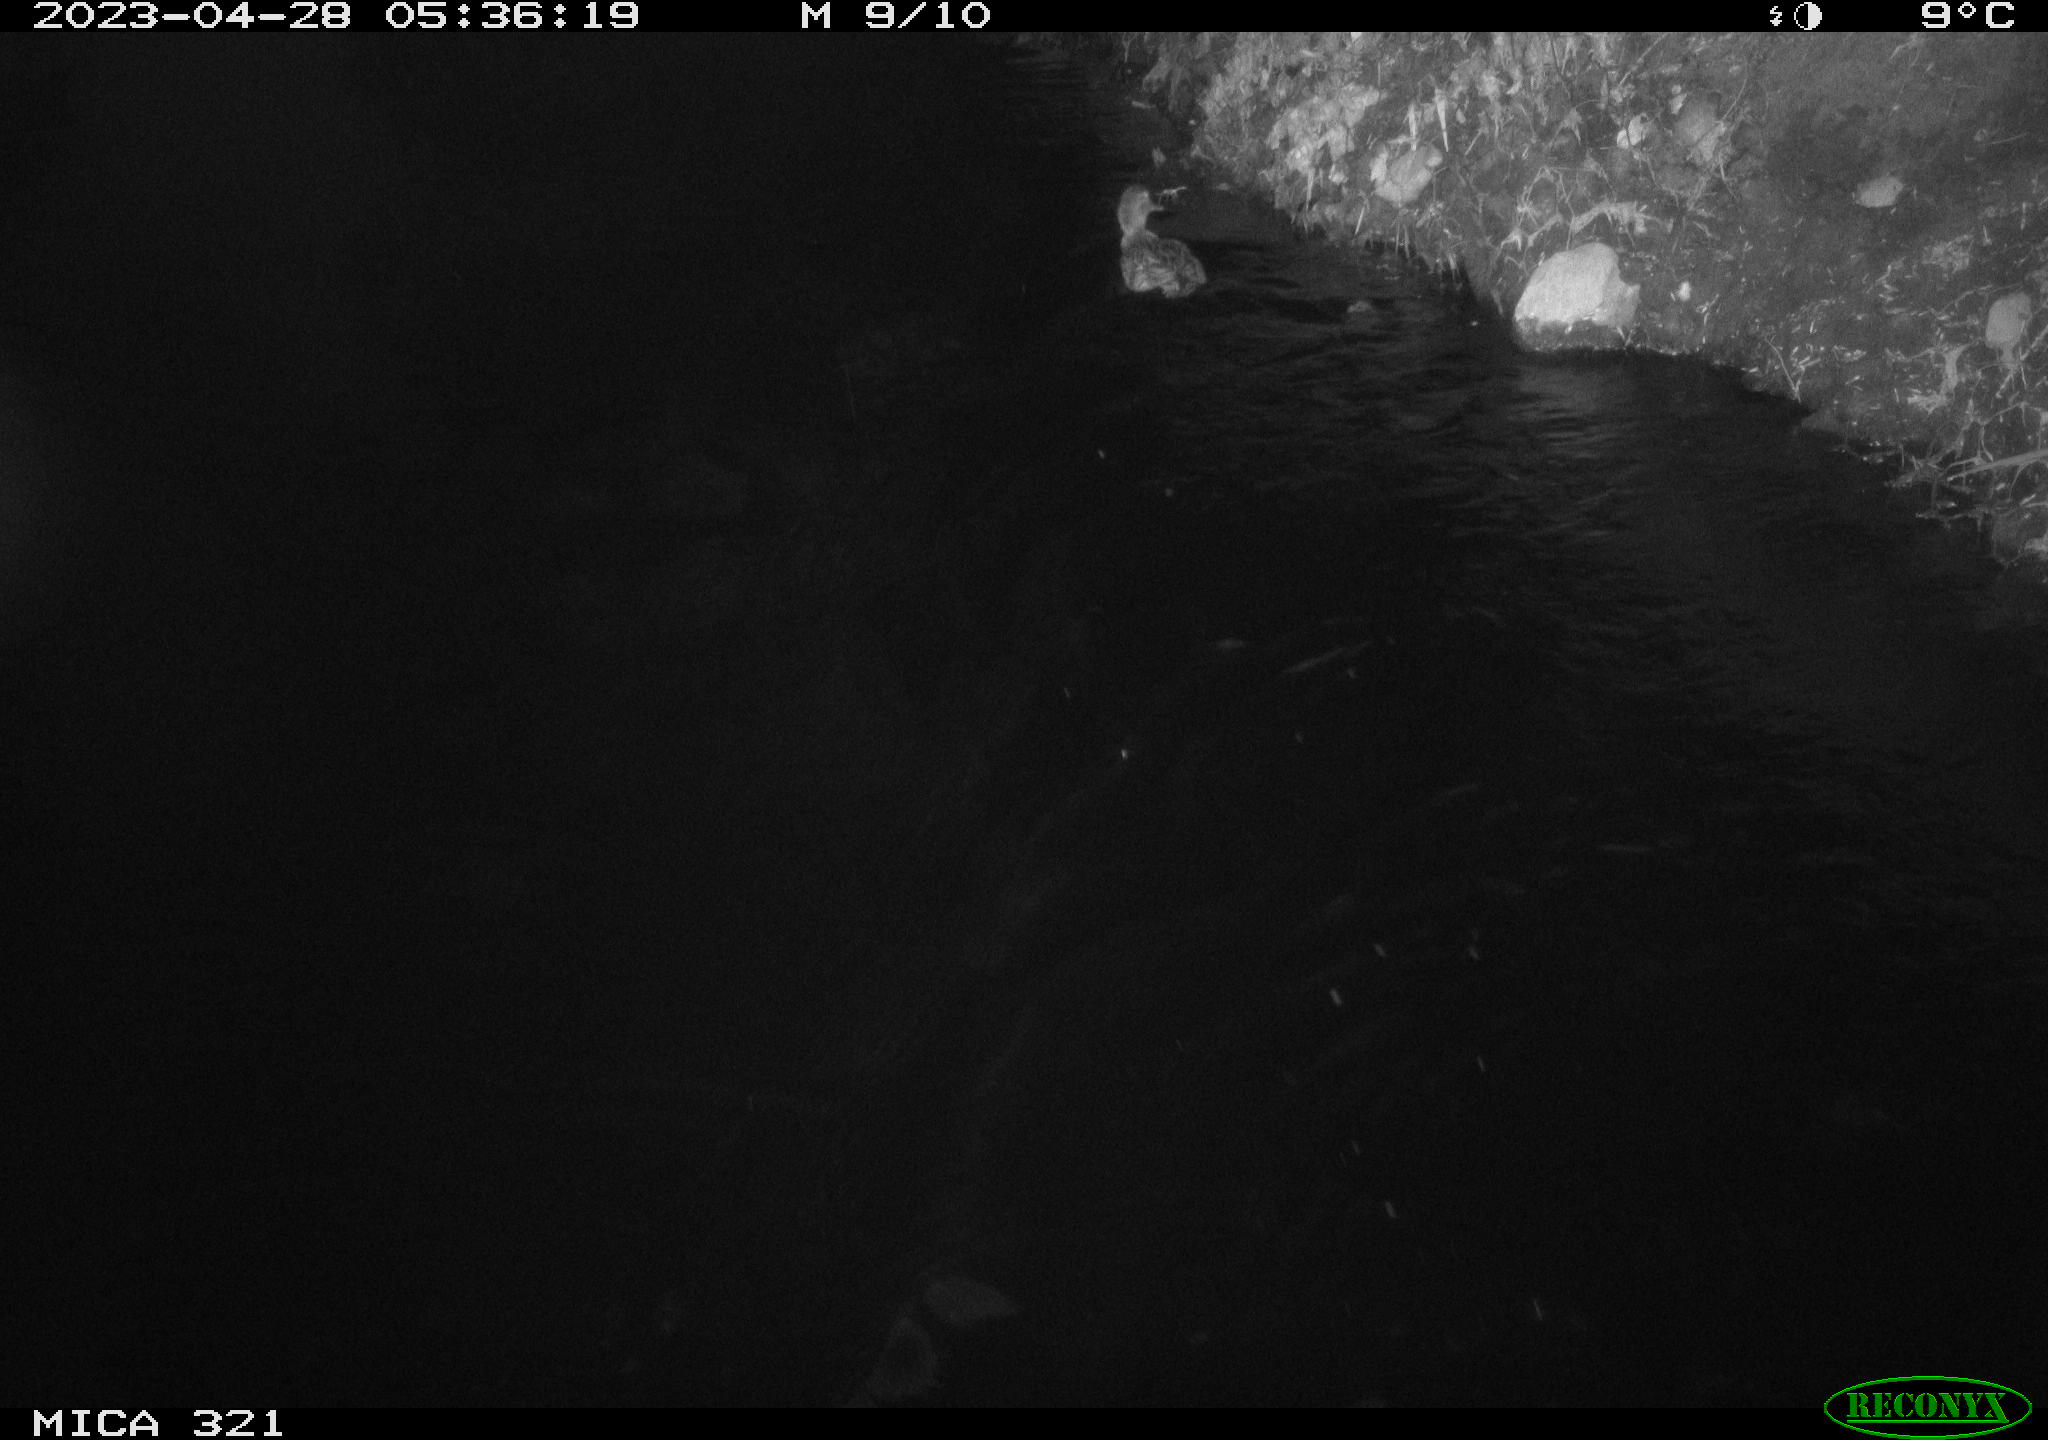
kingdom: Animalia
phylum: Chordata
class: Aves
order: Anseriformes
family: Anatidae
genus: Anas
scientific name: Anas
